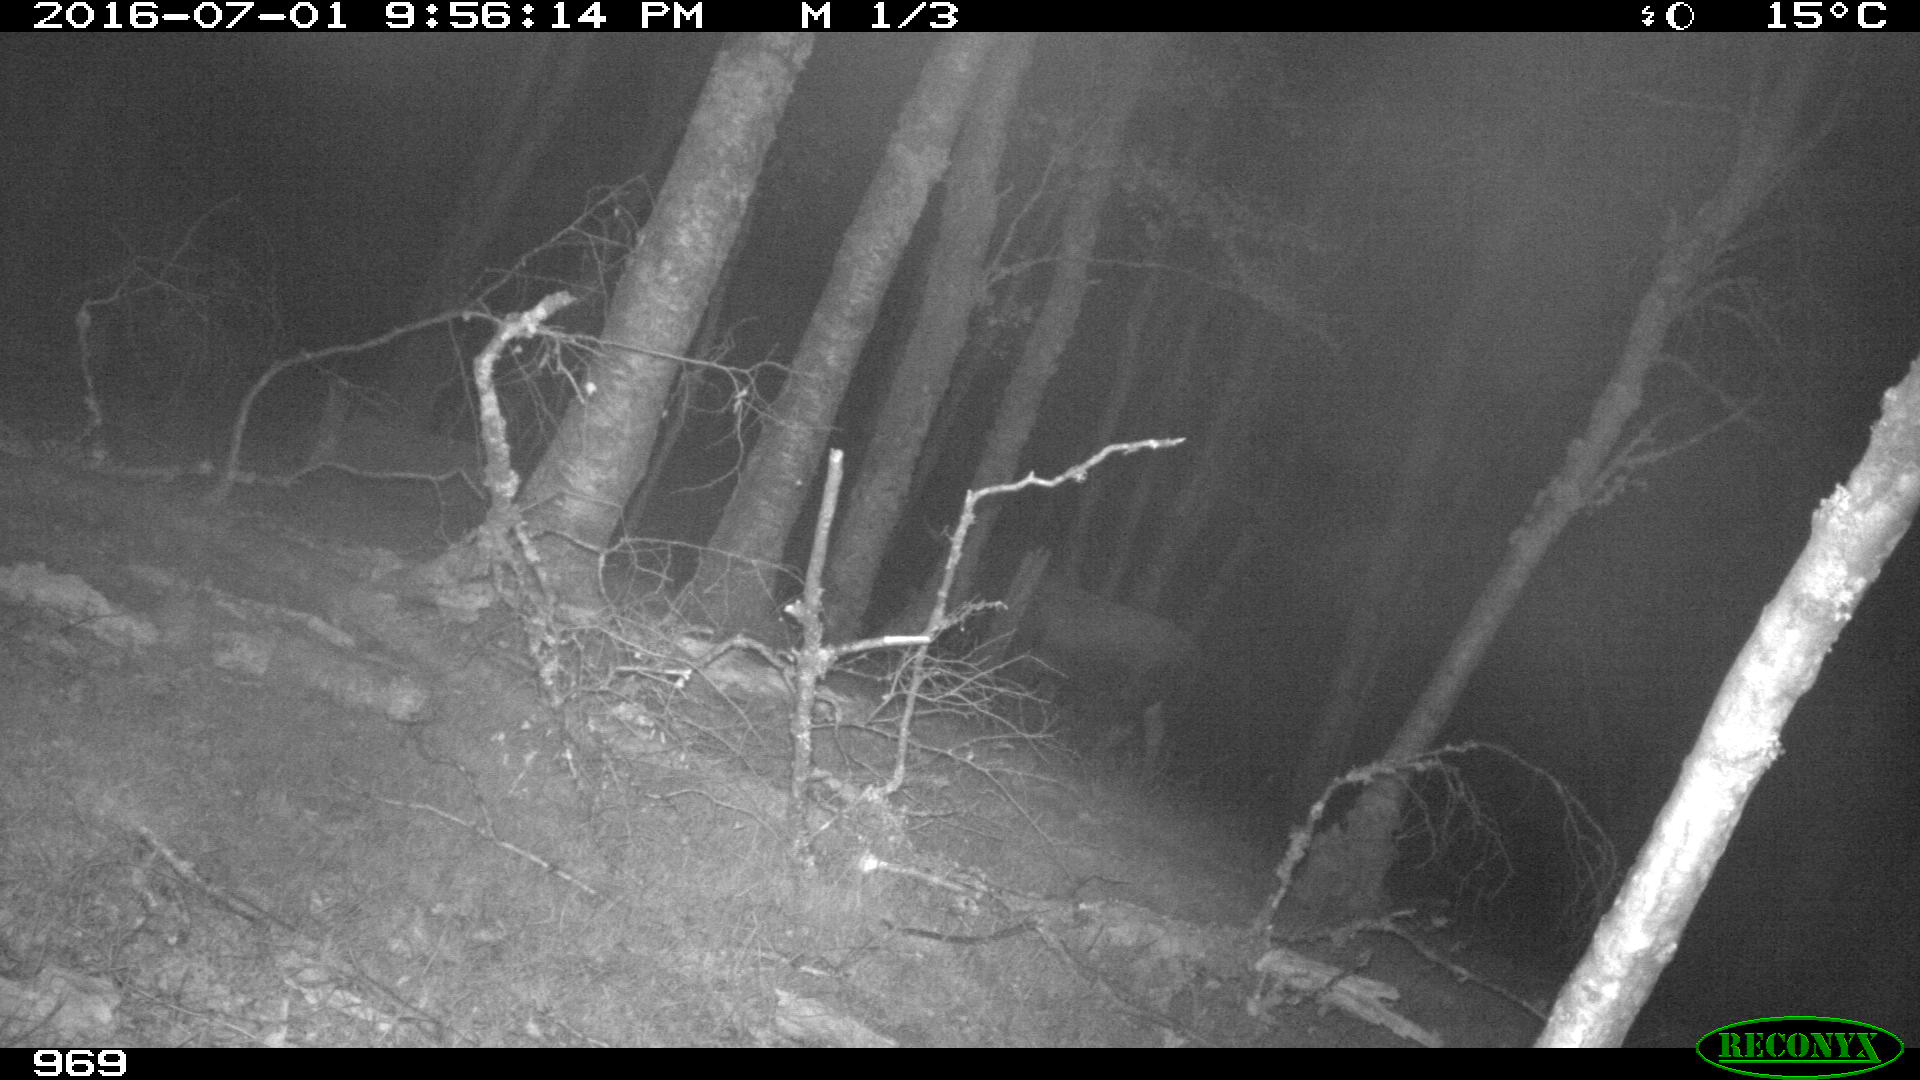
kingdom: Animalia
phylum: Chordata
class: Mammalia
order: Artiodactyla
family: Bovidae
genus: Bos
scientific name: Bos taurus
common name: Domesticated cattle
